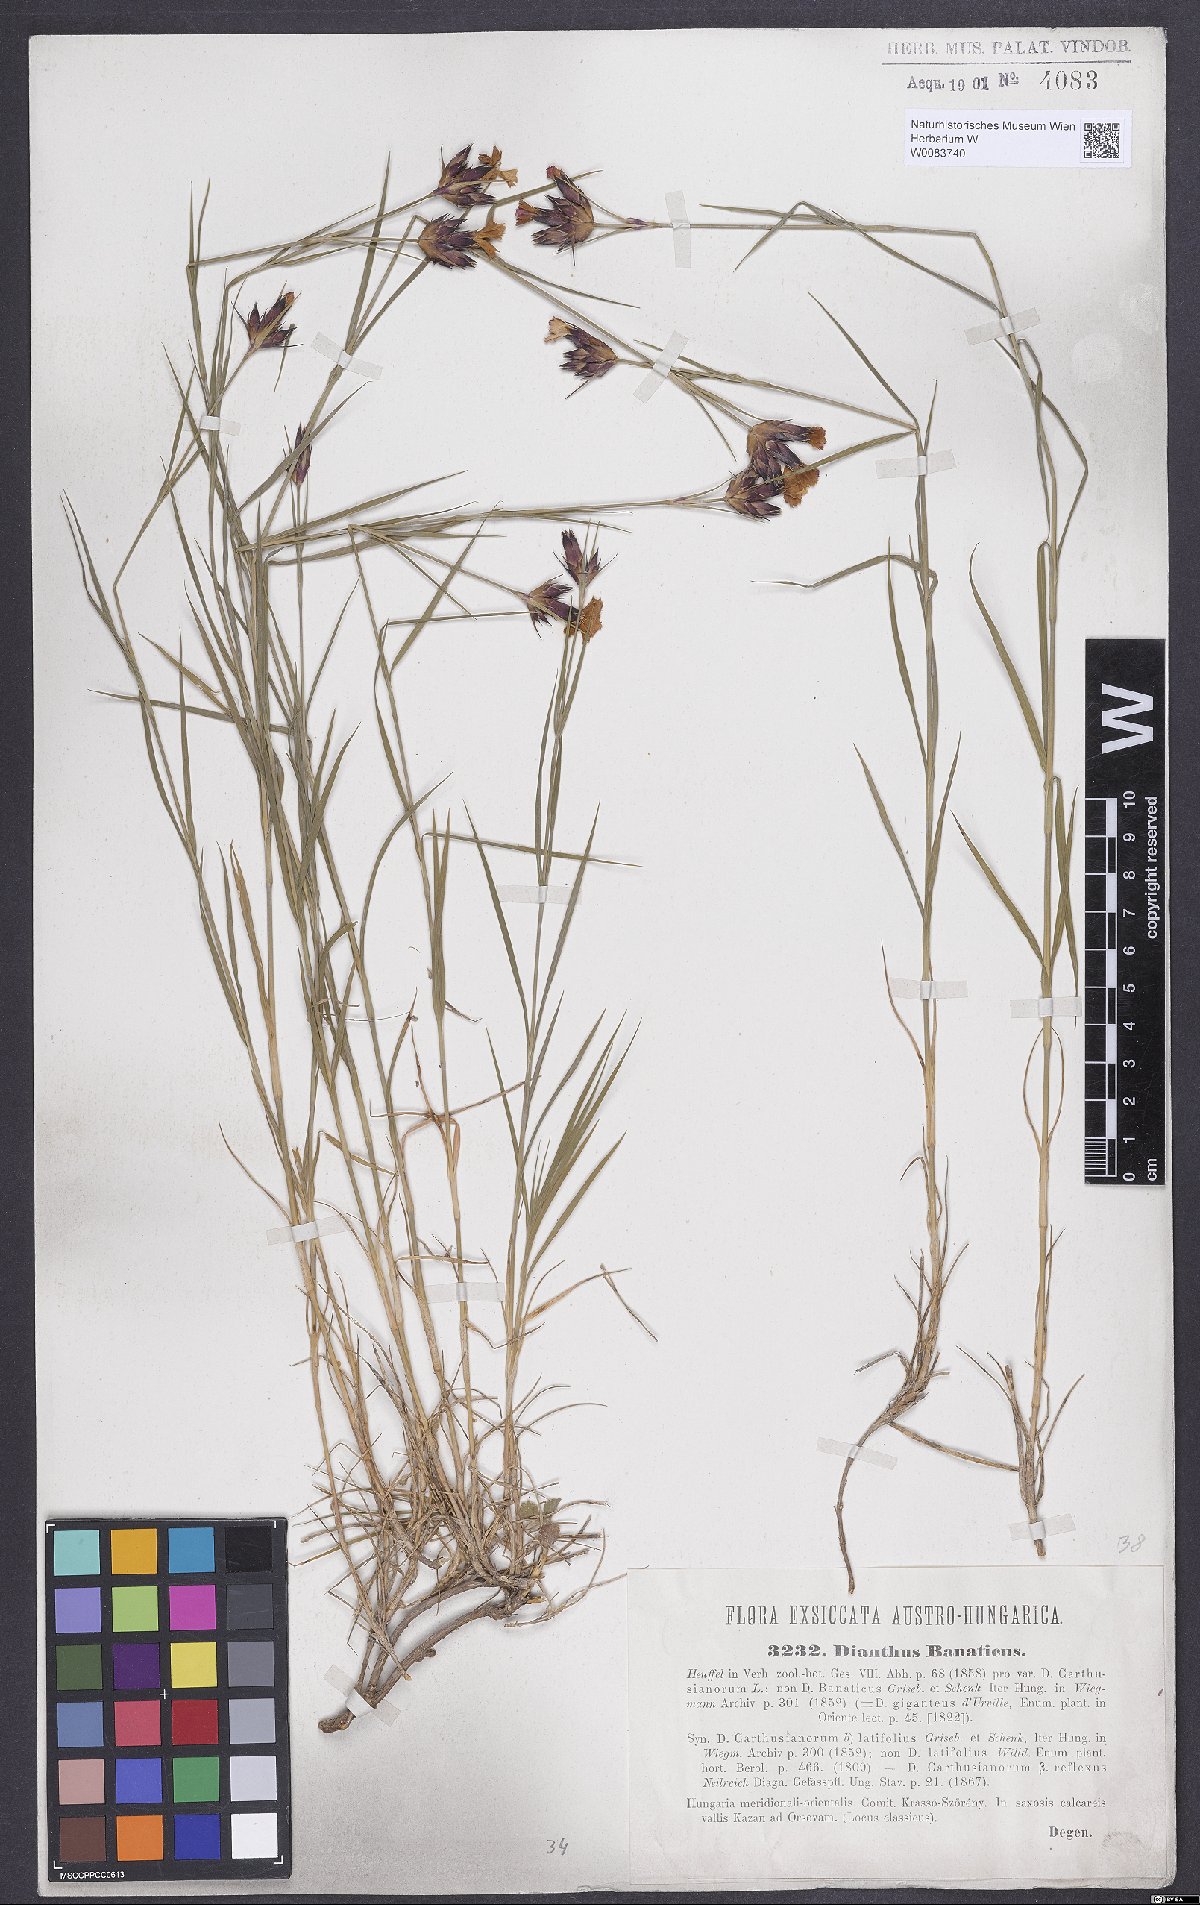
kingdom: Plantae
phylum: Tracheophyta
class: Magnoliopsida
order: Caryophyllales
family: Caryophyllaceae
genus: Dianthus
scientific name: Dianthus giganteus
